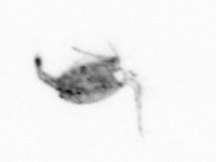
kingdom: Animalia
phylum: Arthropoda
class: Copepoda
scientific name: Copepoda
